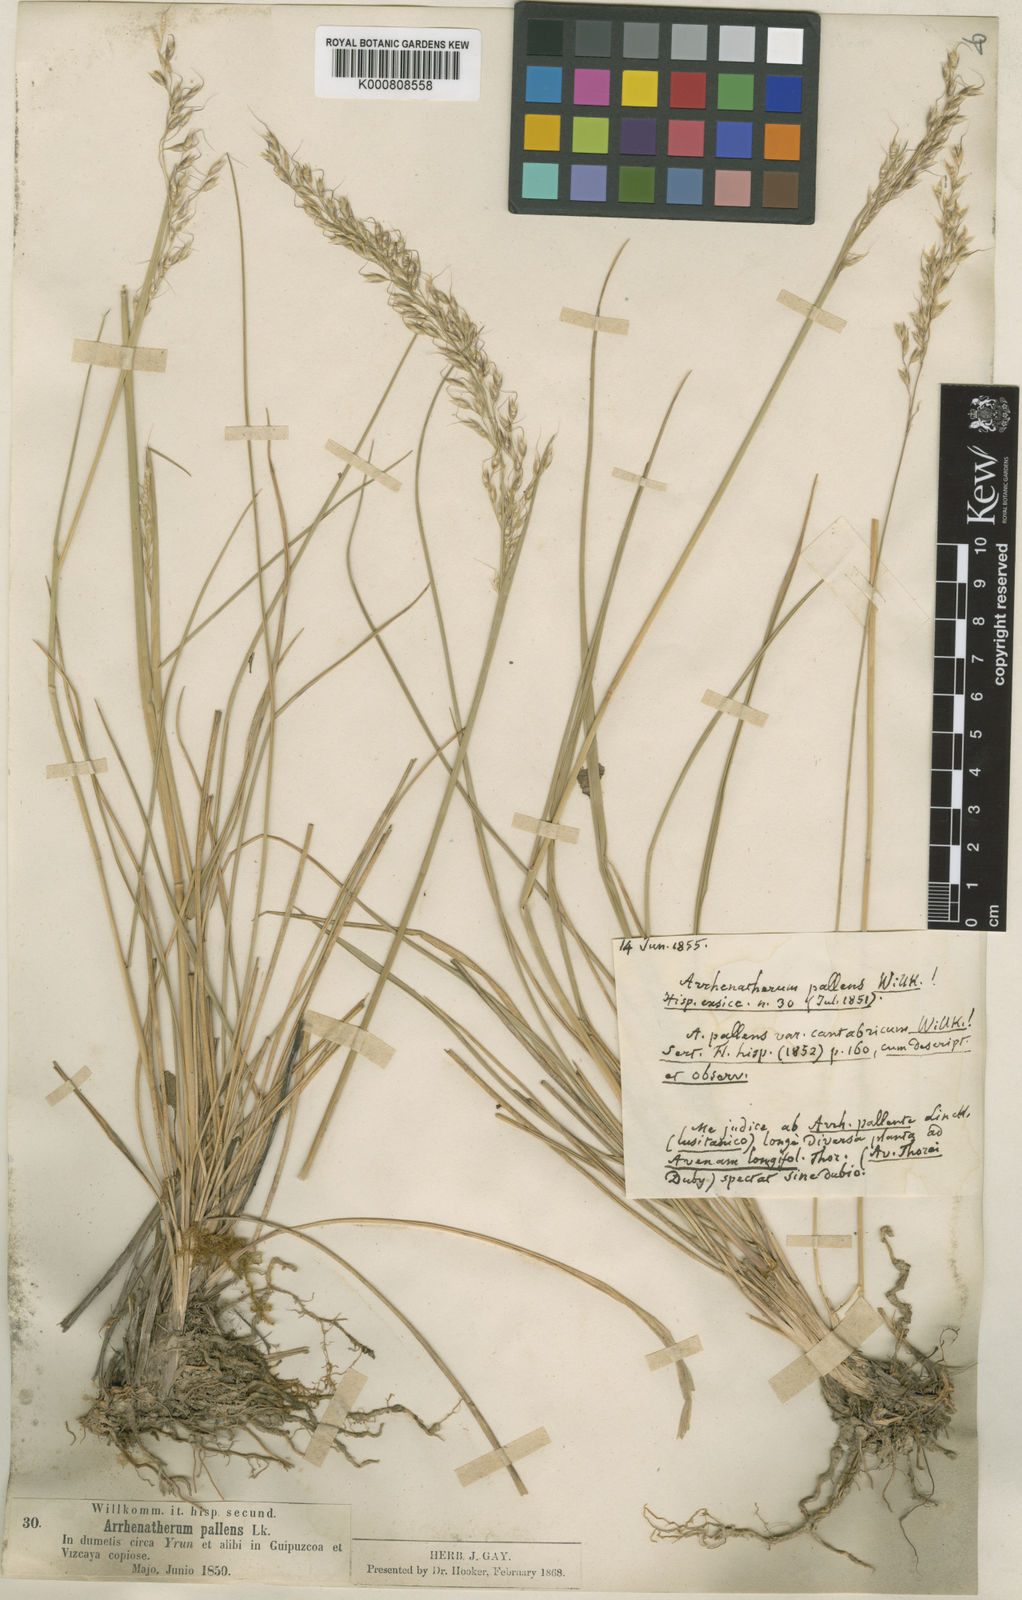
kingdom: Plantae
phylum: Tracheophyta
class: Liliopsida
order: Poales
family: Poaceae
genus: Trisetopsis
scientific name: Trisetopsis longifolia
